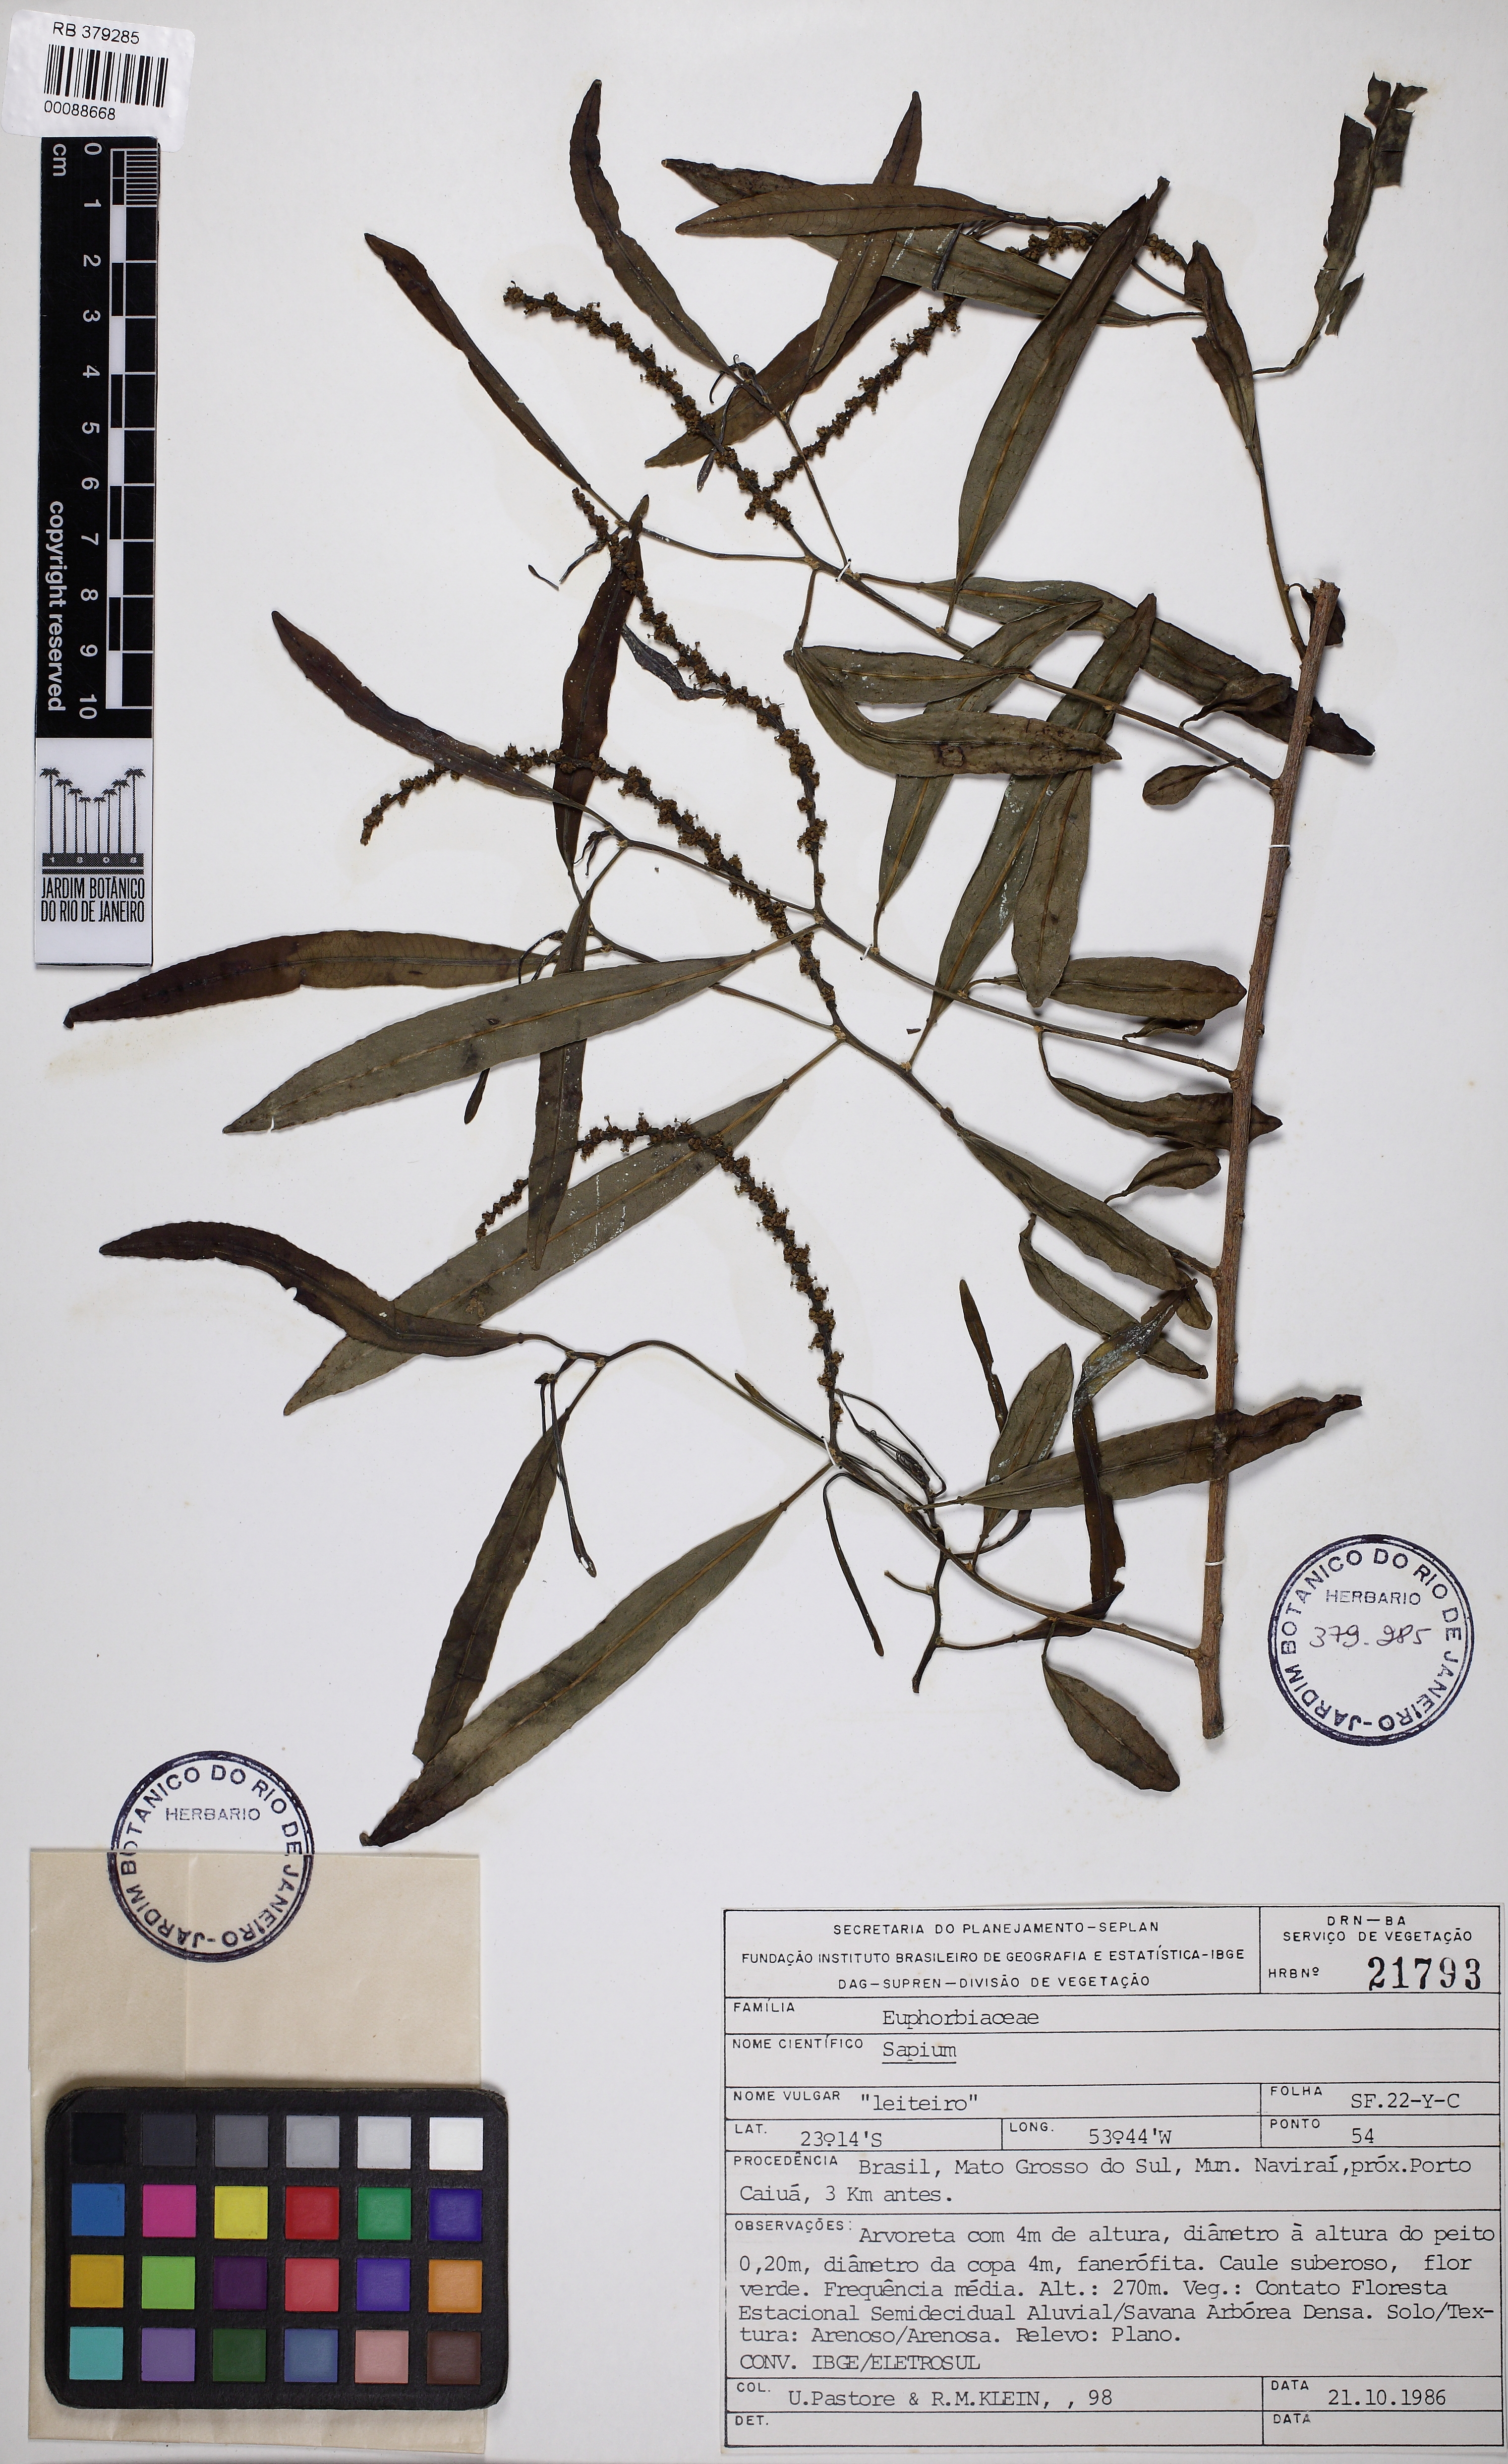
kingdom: Plantae
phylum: Tracheophyta
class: Magnoliopsida
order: Malpighiales
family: Euphorbiaceae
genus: Sapium
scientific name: Sapium haematospermum
